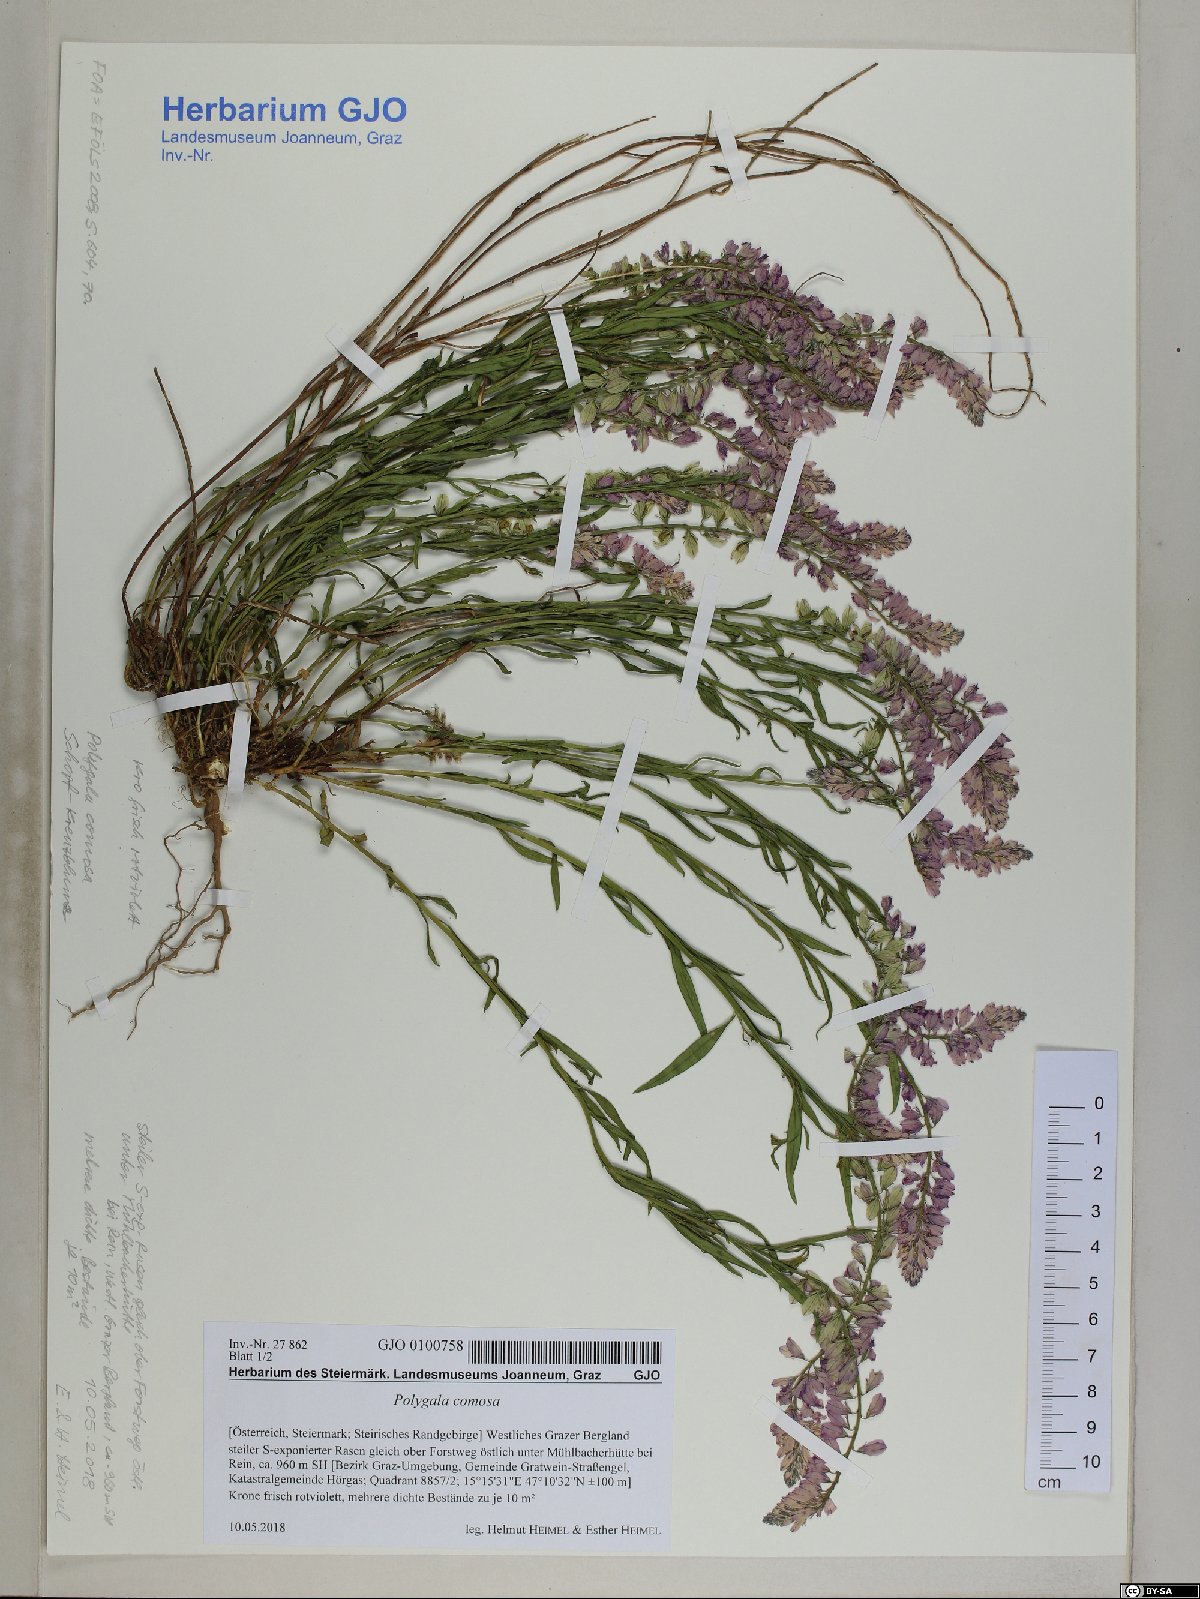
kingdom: Plantae
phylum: Tracheophyta
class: Magnoliopsida
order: Fabales
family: Polygalaceae
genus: Polygala
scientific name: Polygala comosa
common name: Tufted milkwort
